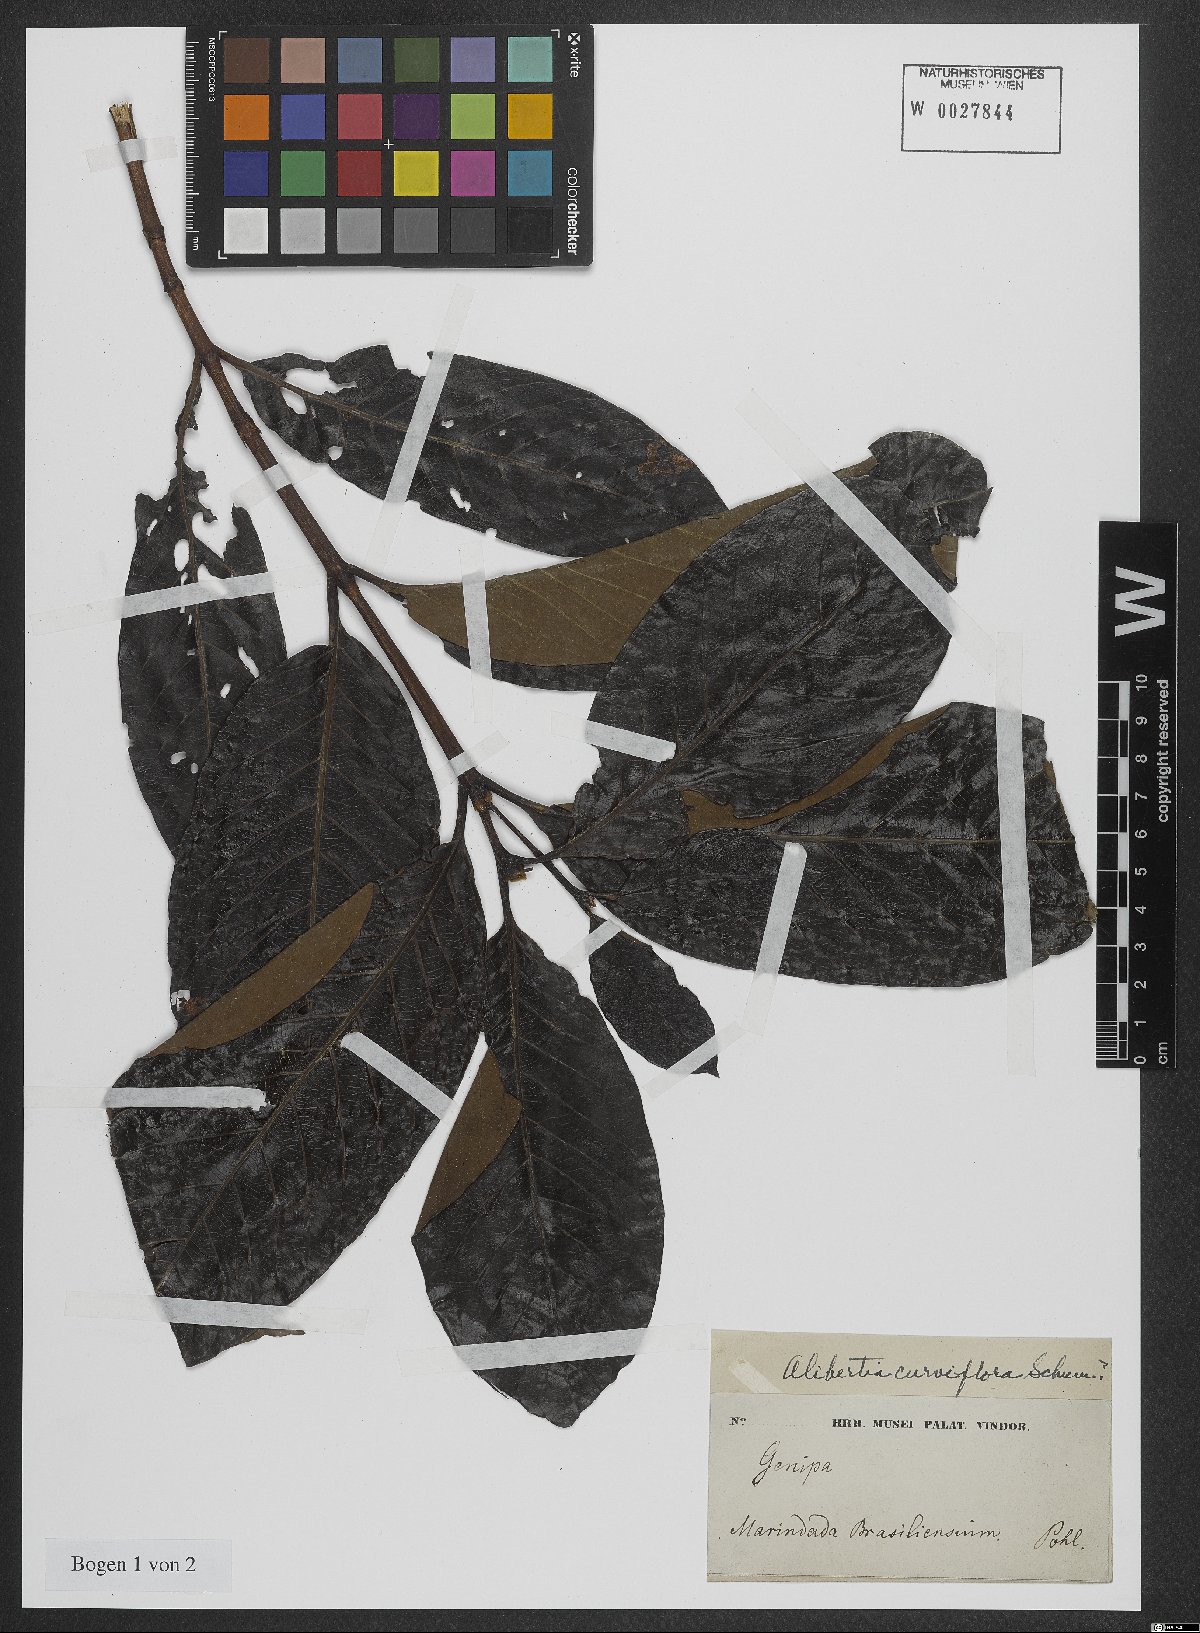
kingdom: Plantae
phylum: Tracheophyta
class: Magnoliopsida
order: Gentianales
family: Rubiaceae
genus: Alibertia
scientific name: Alibertia curviflora
